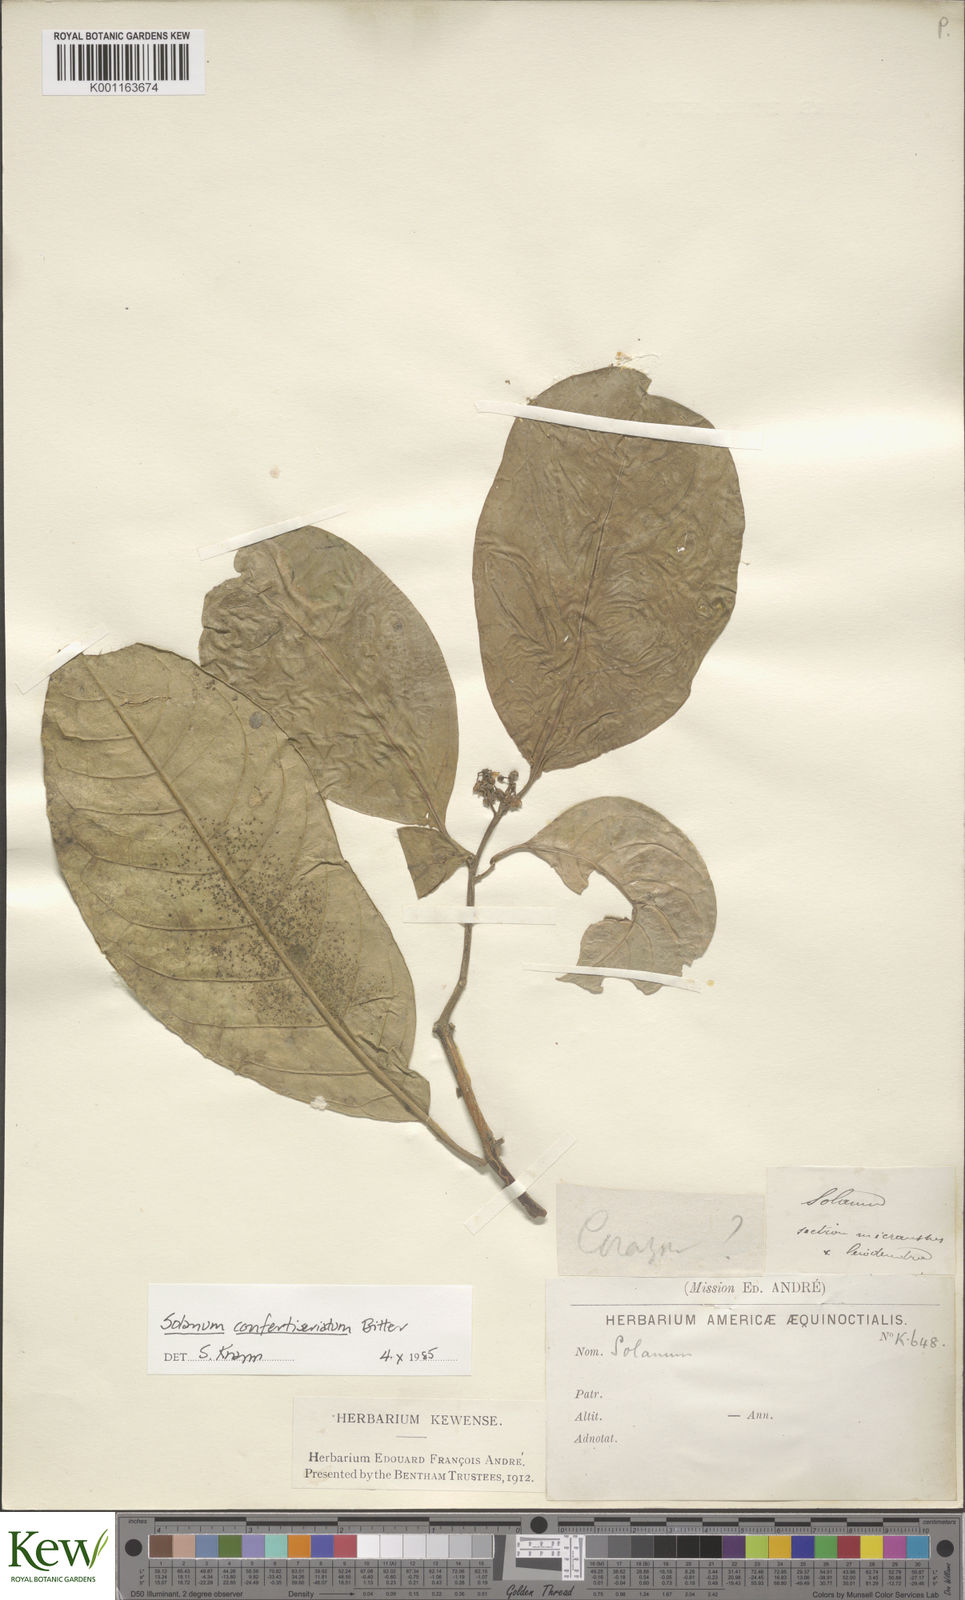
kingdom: Plantae
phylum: Tracheophyta
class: Magnoliopsida
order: Solanales
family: Solanaceae
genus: Solanum
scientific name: Solanum confertiseriatum
